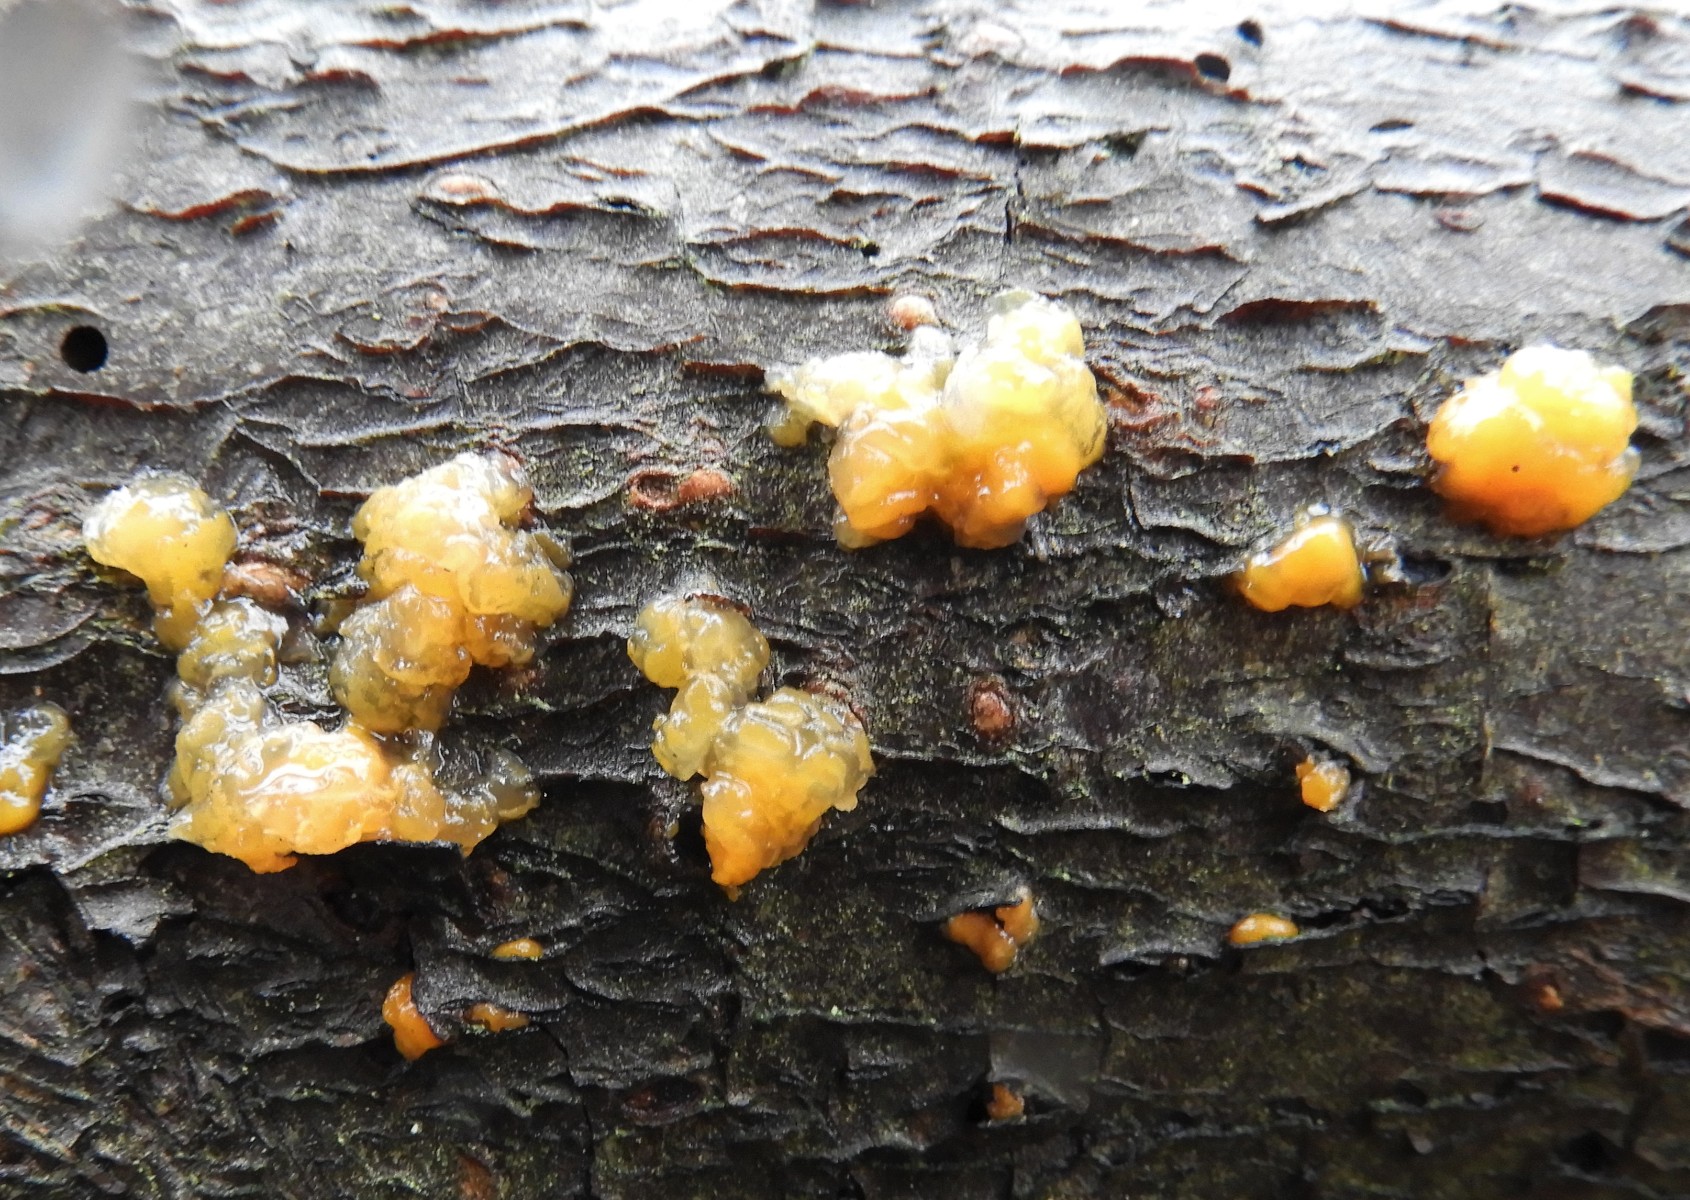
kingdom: Fungi
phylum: Basidiomycota
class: Dacrymycetes
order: Dacrymycetales
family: Dacrymycetaceae
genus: Dacrymyces
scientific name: Dacrymyces
